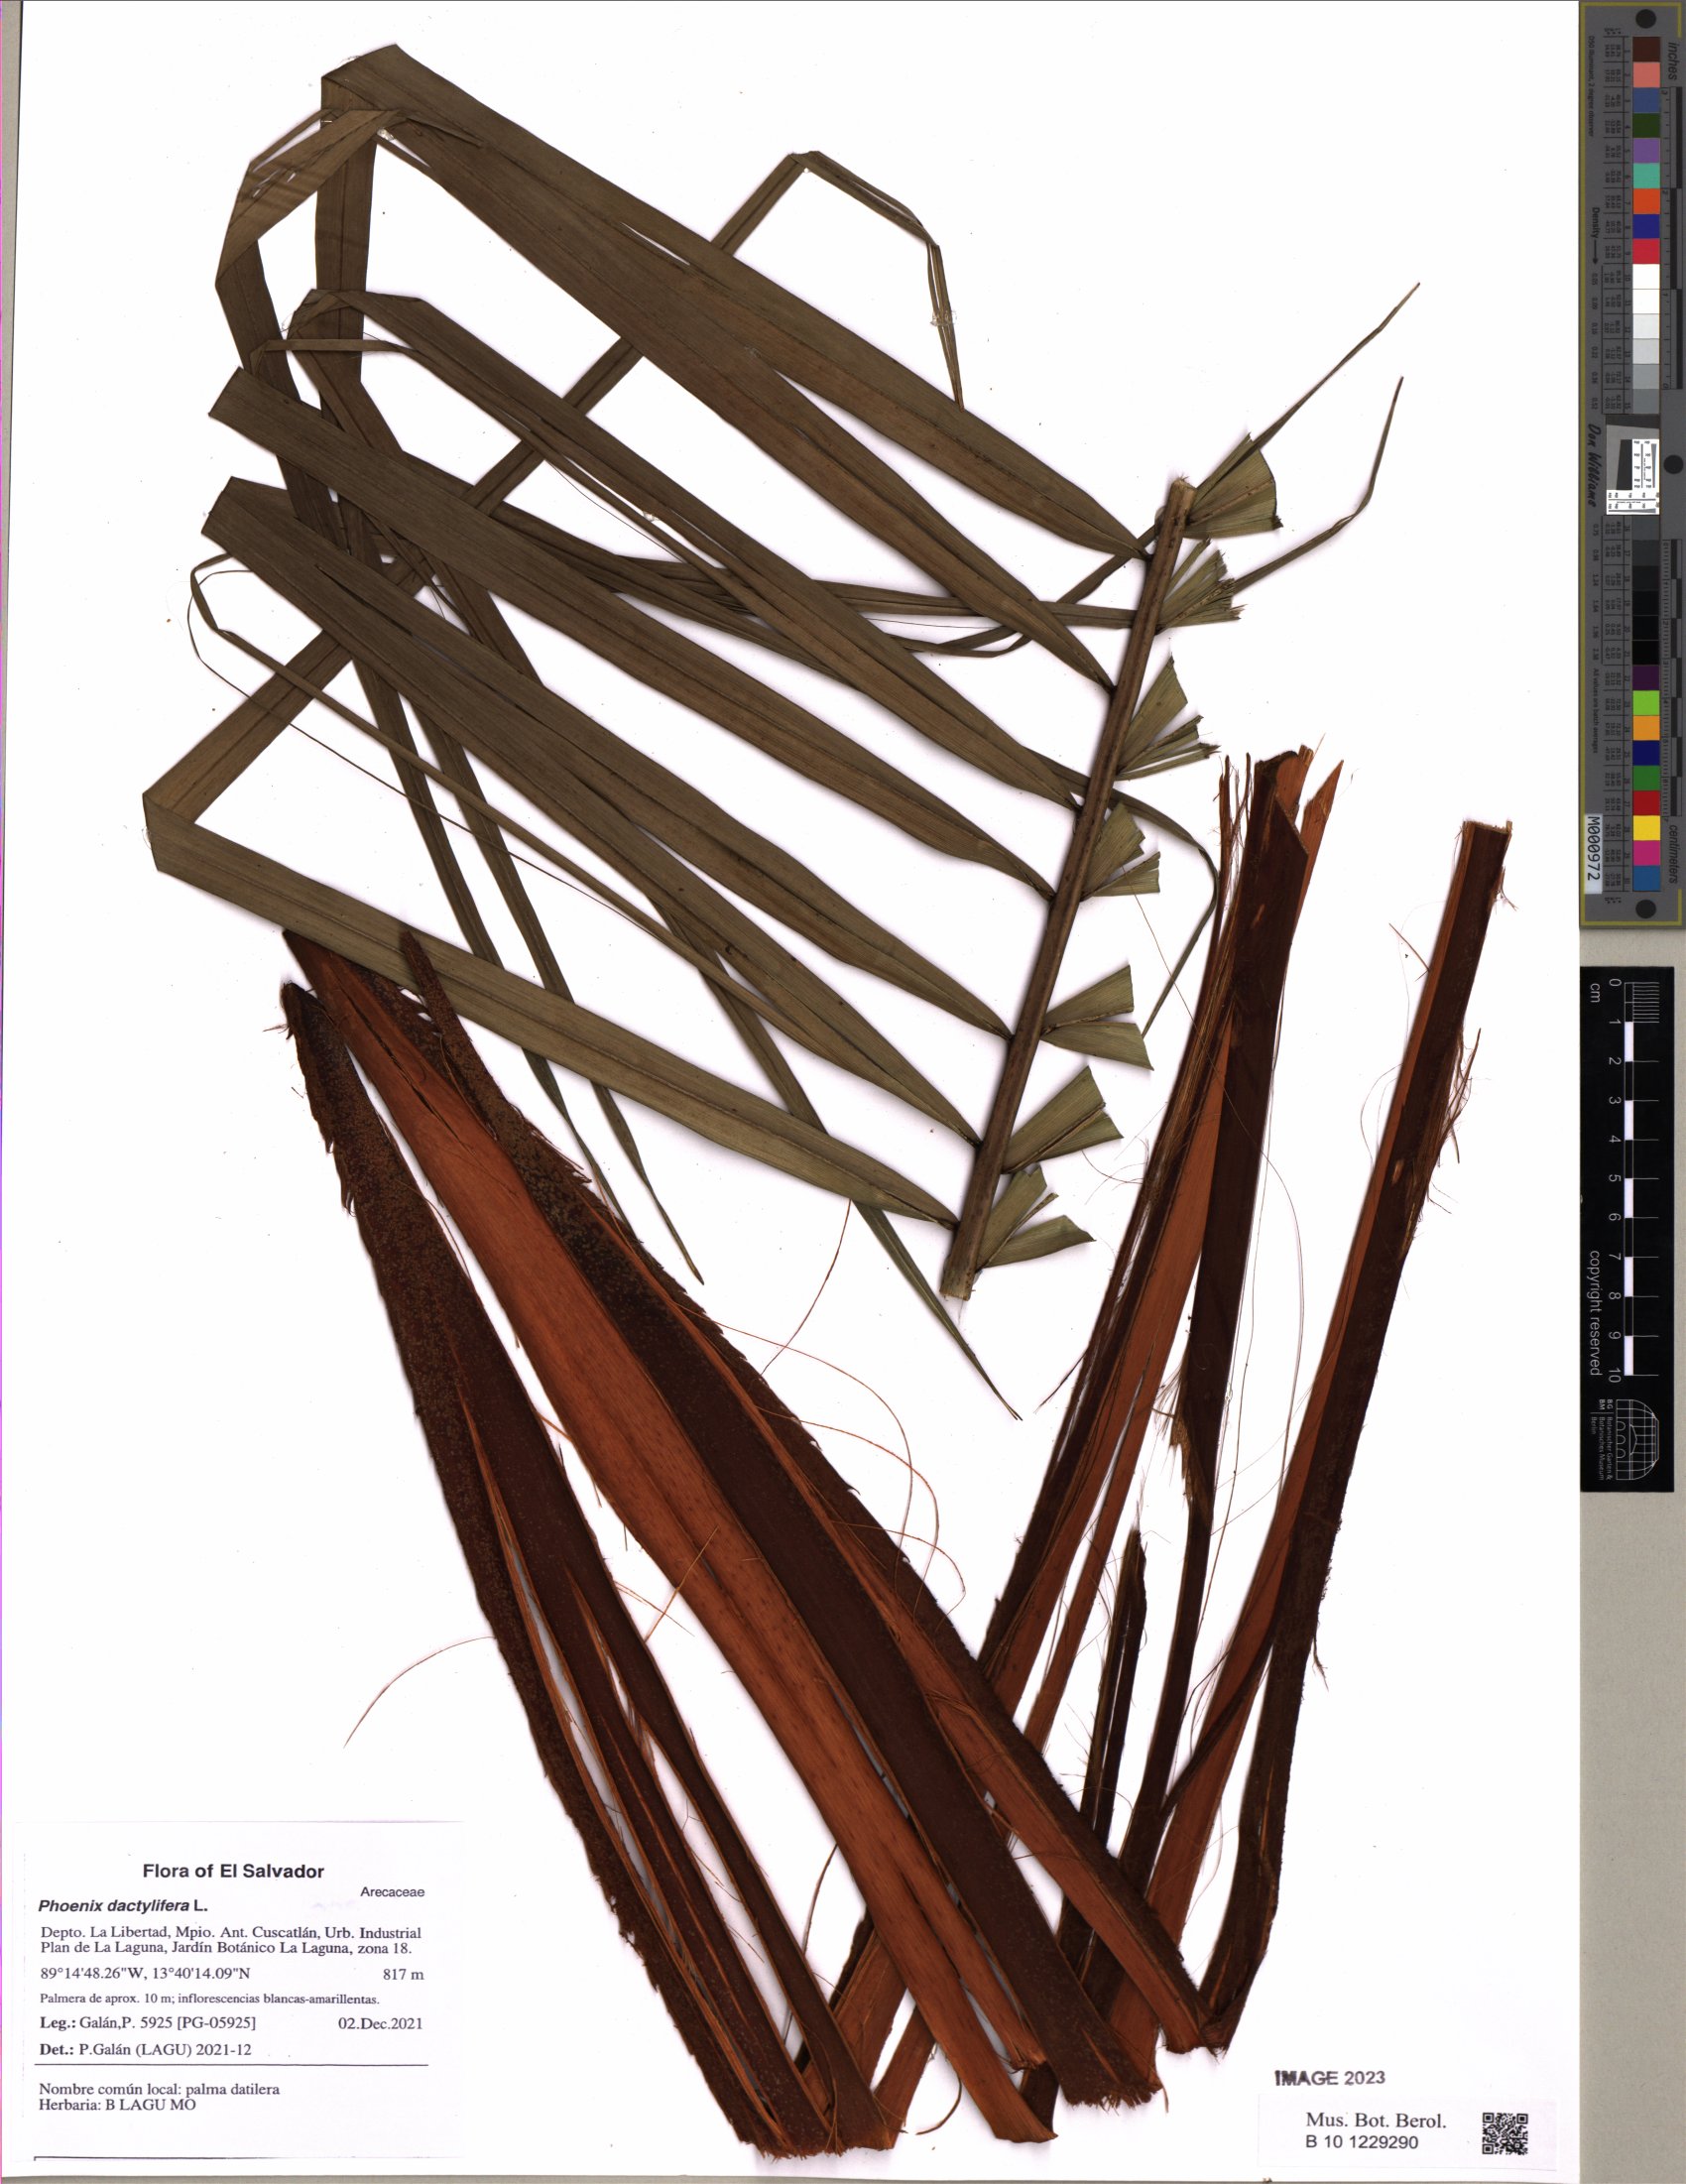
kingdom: Plantae
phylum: Tracheophyta
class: Liliopsida
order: Arecales
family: Arecaceae
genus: Phoenix
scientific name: Phoenix reclinata
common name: Senegal date palm
